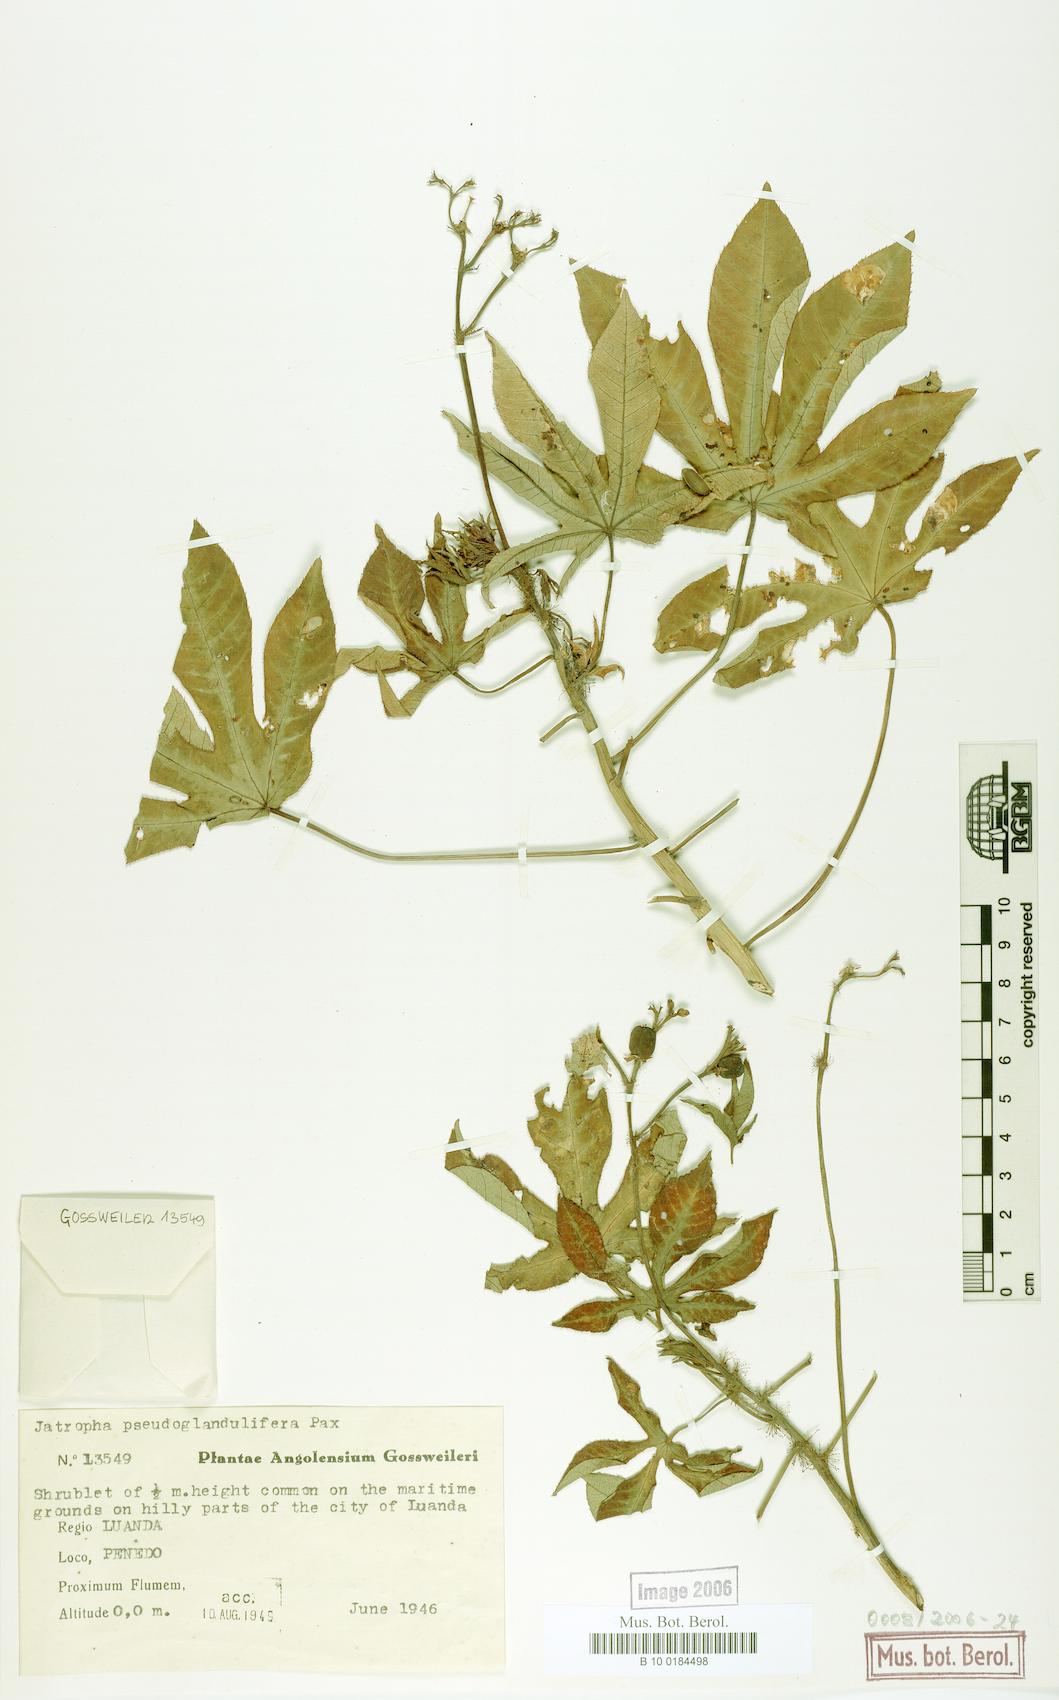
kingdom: Plantae
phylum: Tracheophyta
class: Magnoliopsida
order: Malpighiales
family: Euphorbiaceae
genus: Jatropha
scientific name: Jatropha spicata
